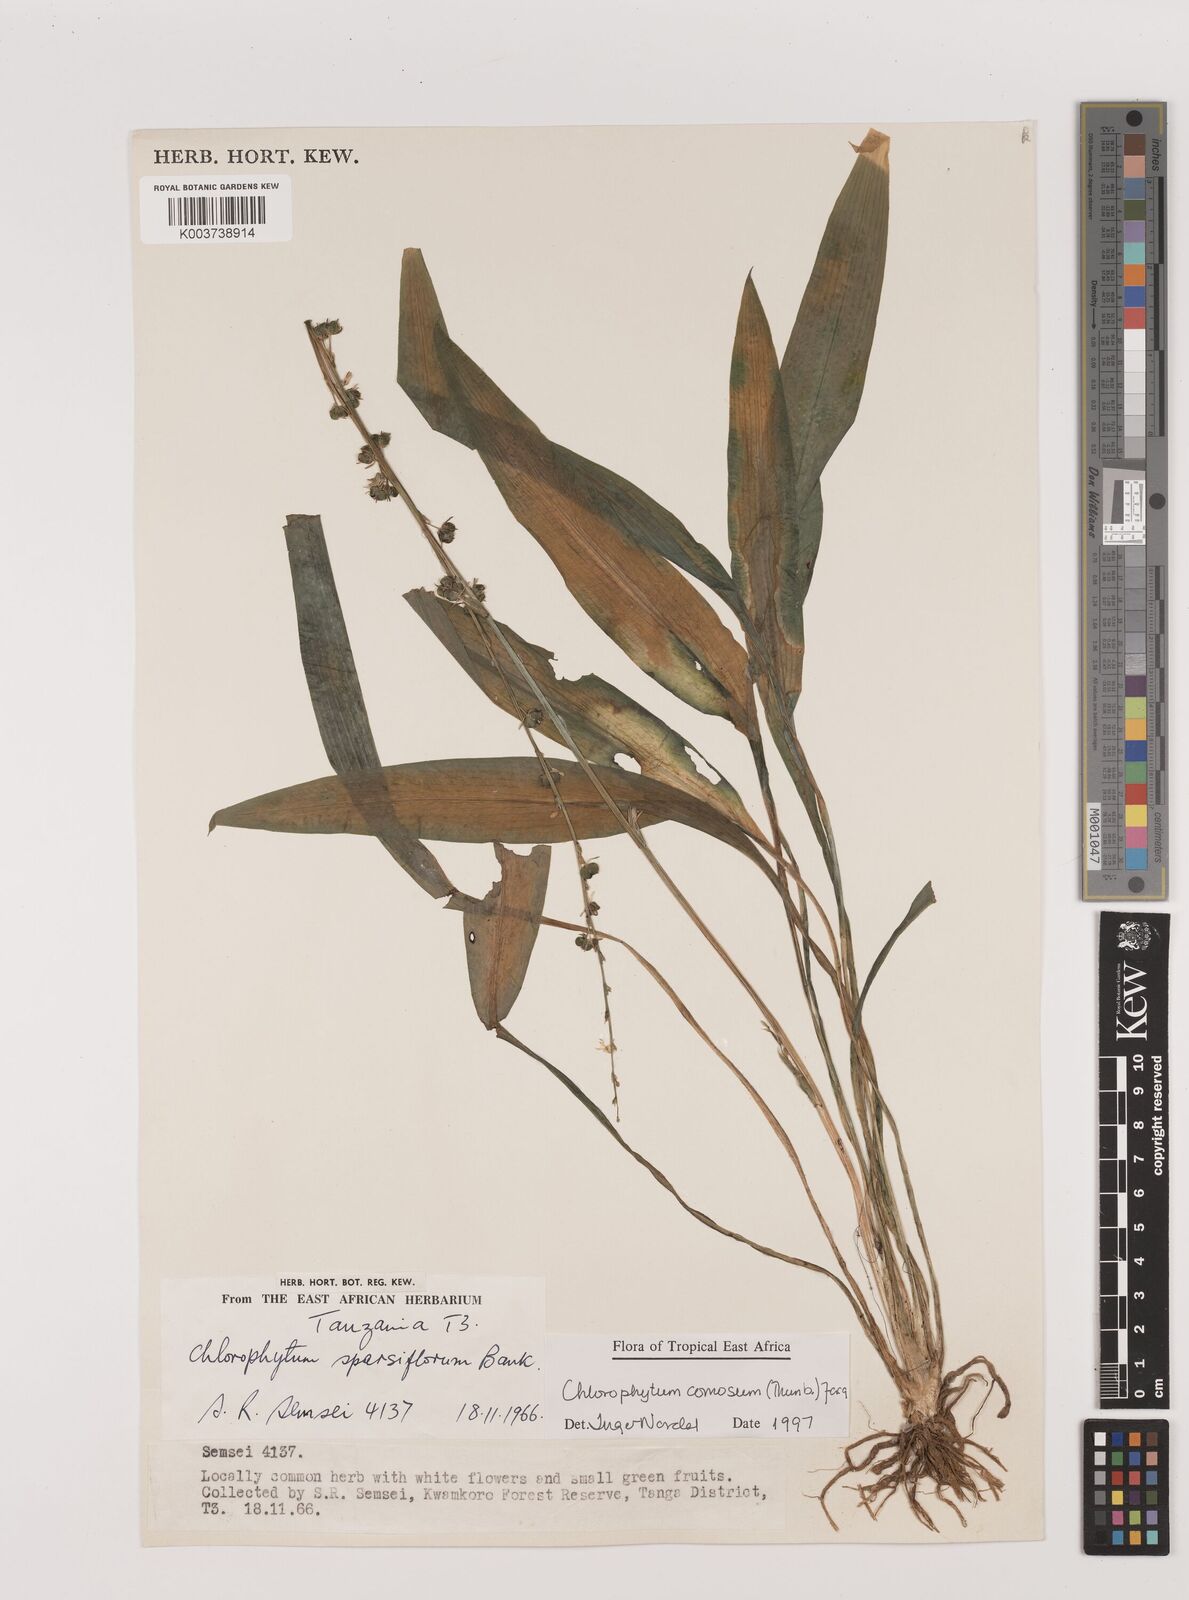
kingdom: Plantae
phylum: Tracheophyta
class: Liliopsida
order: Asparagales
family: Asparagaceae
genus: Chlorophytum
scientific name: Chlorophytum comosum
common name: Spider plant
